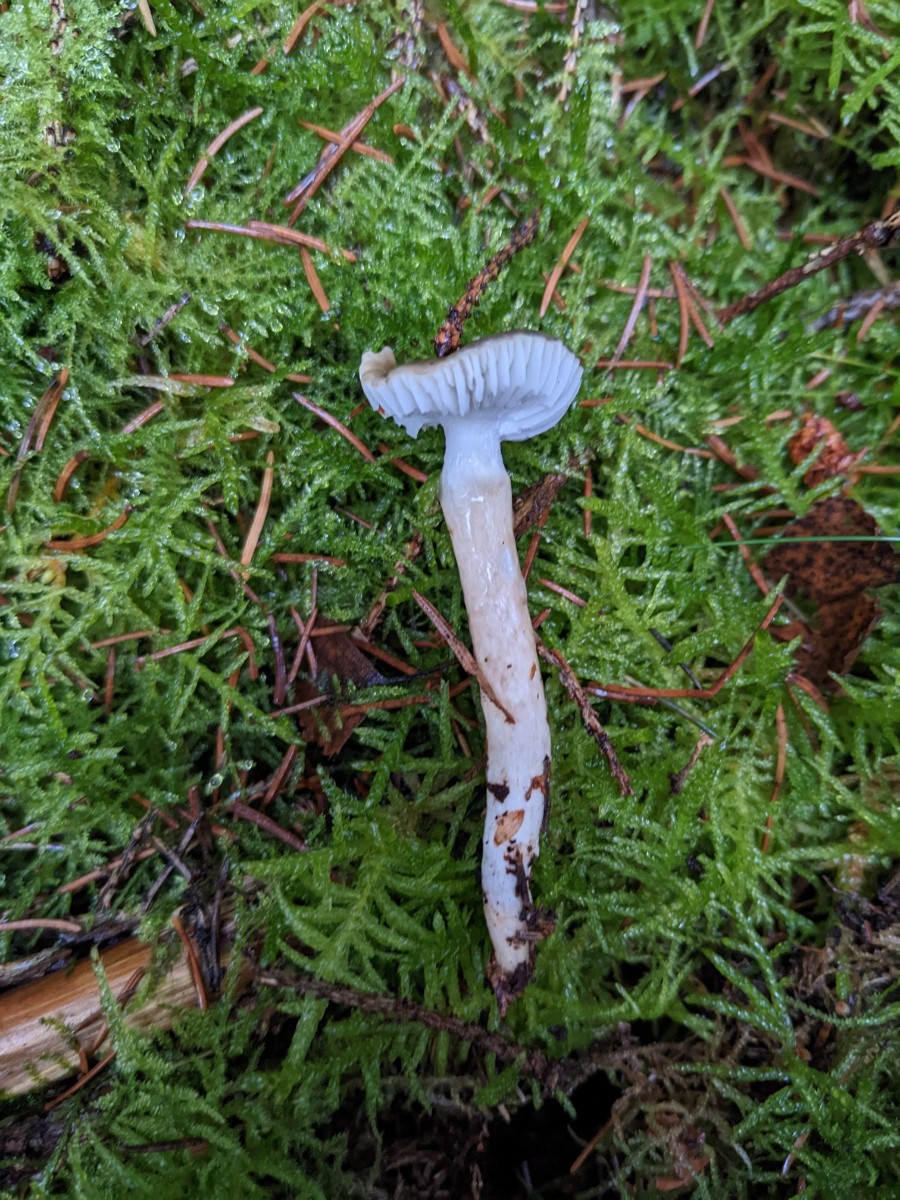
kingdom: Fungi
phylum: Basidiomycota
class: Agaricomycetes
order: Agaricales
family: Hygrophoraceae
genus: Hygrophorus
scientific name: Hygrophorus olivaceoalbus
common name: hvidbrun sneglehat
